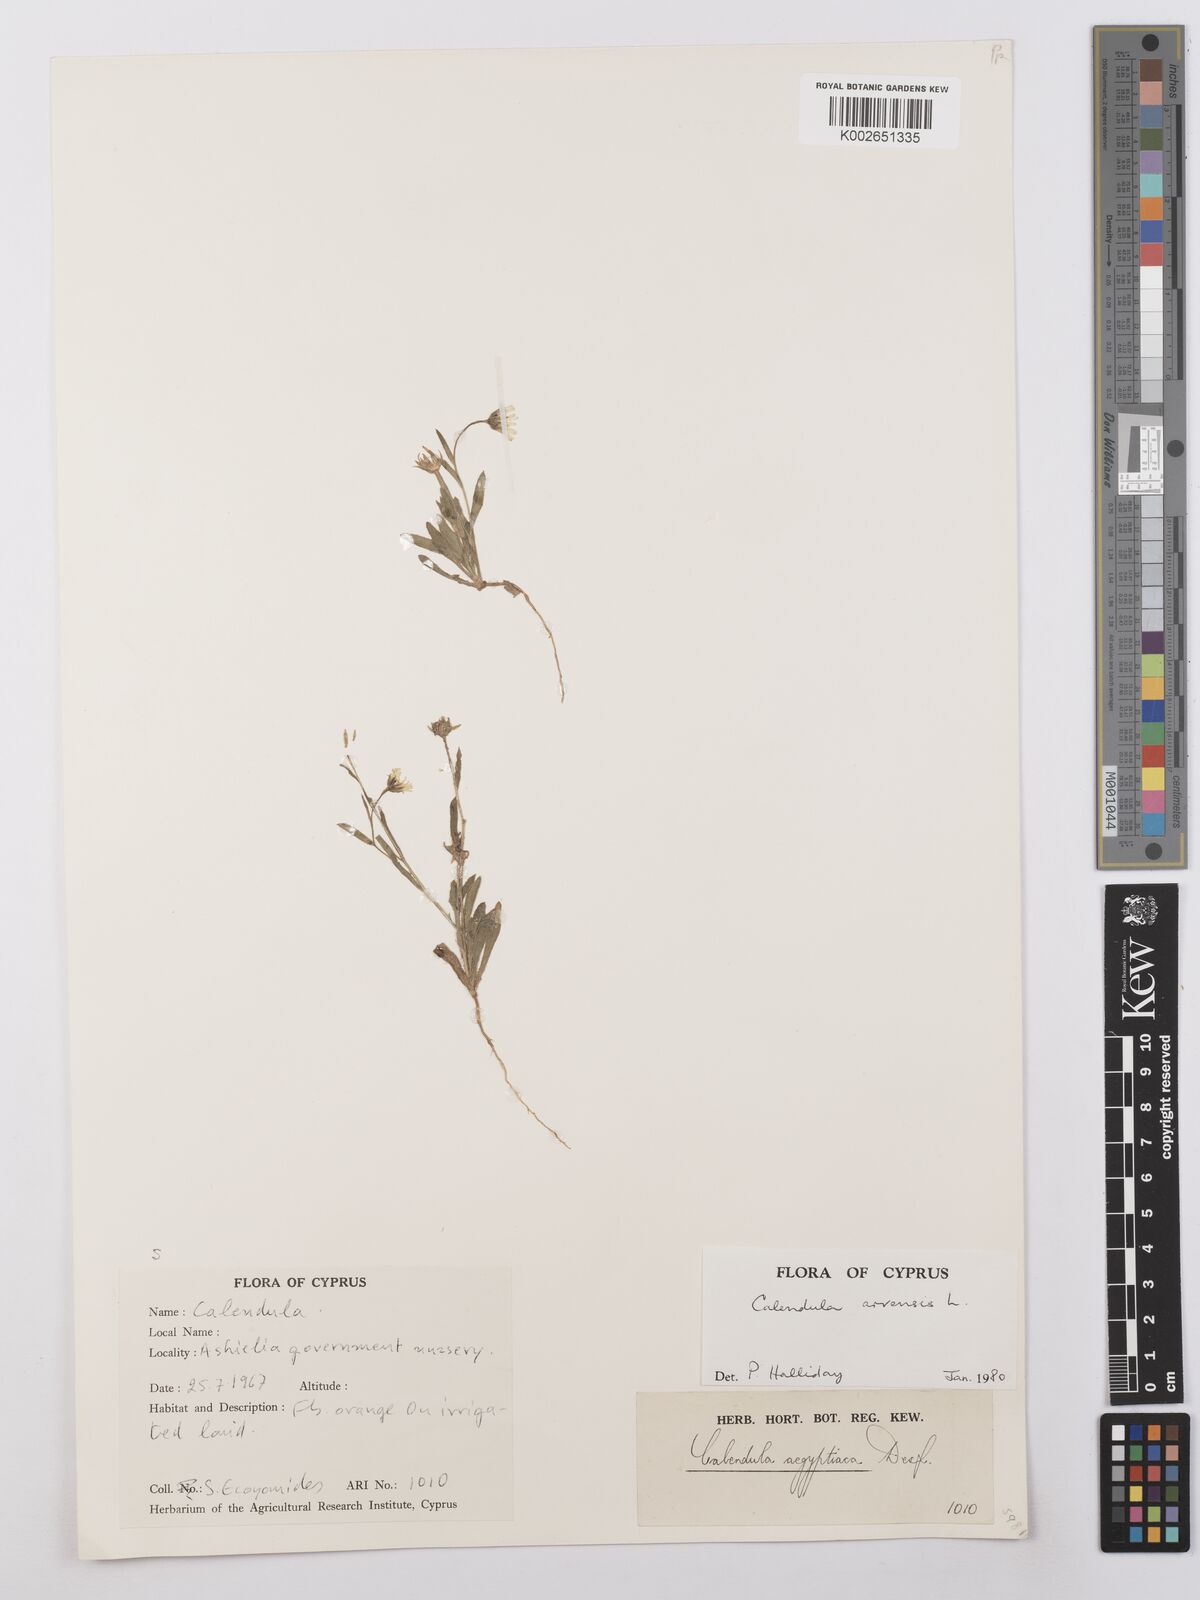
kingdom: Plantae
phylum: Tracheophyta
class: Magnoliopsida
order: Asterales
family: Asteraceae
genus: Calendula
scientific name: Calendula arvensis
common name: Field marigold
